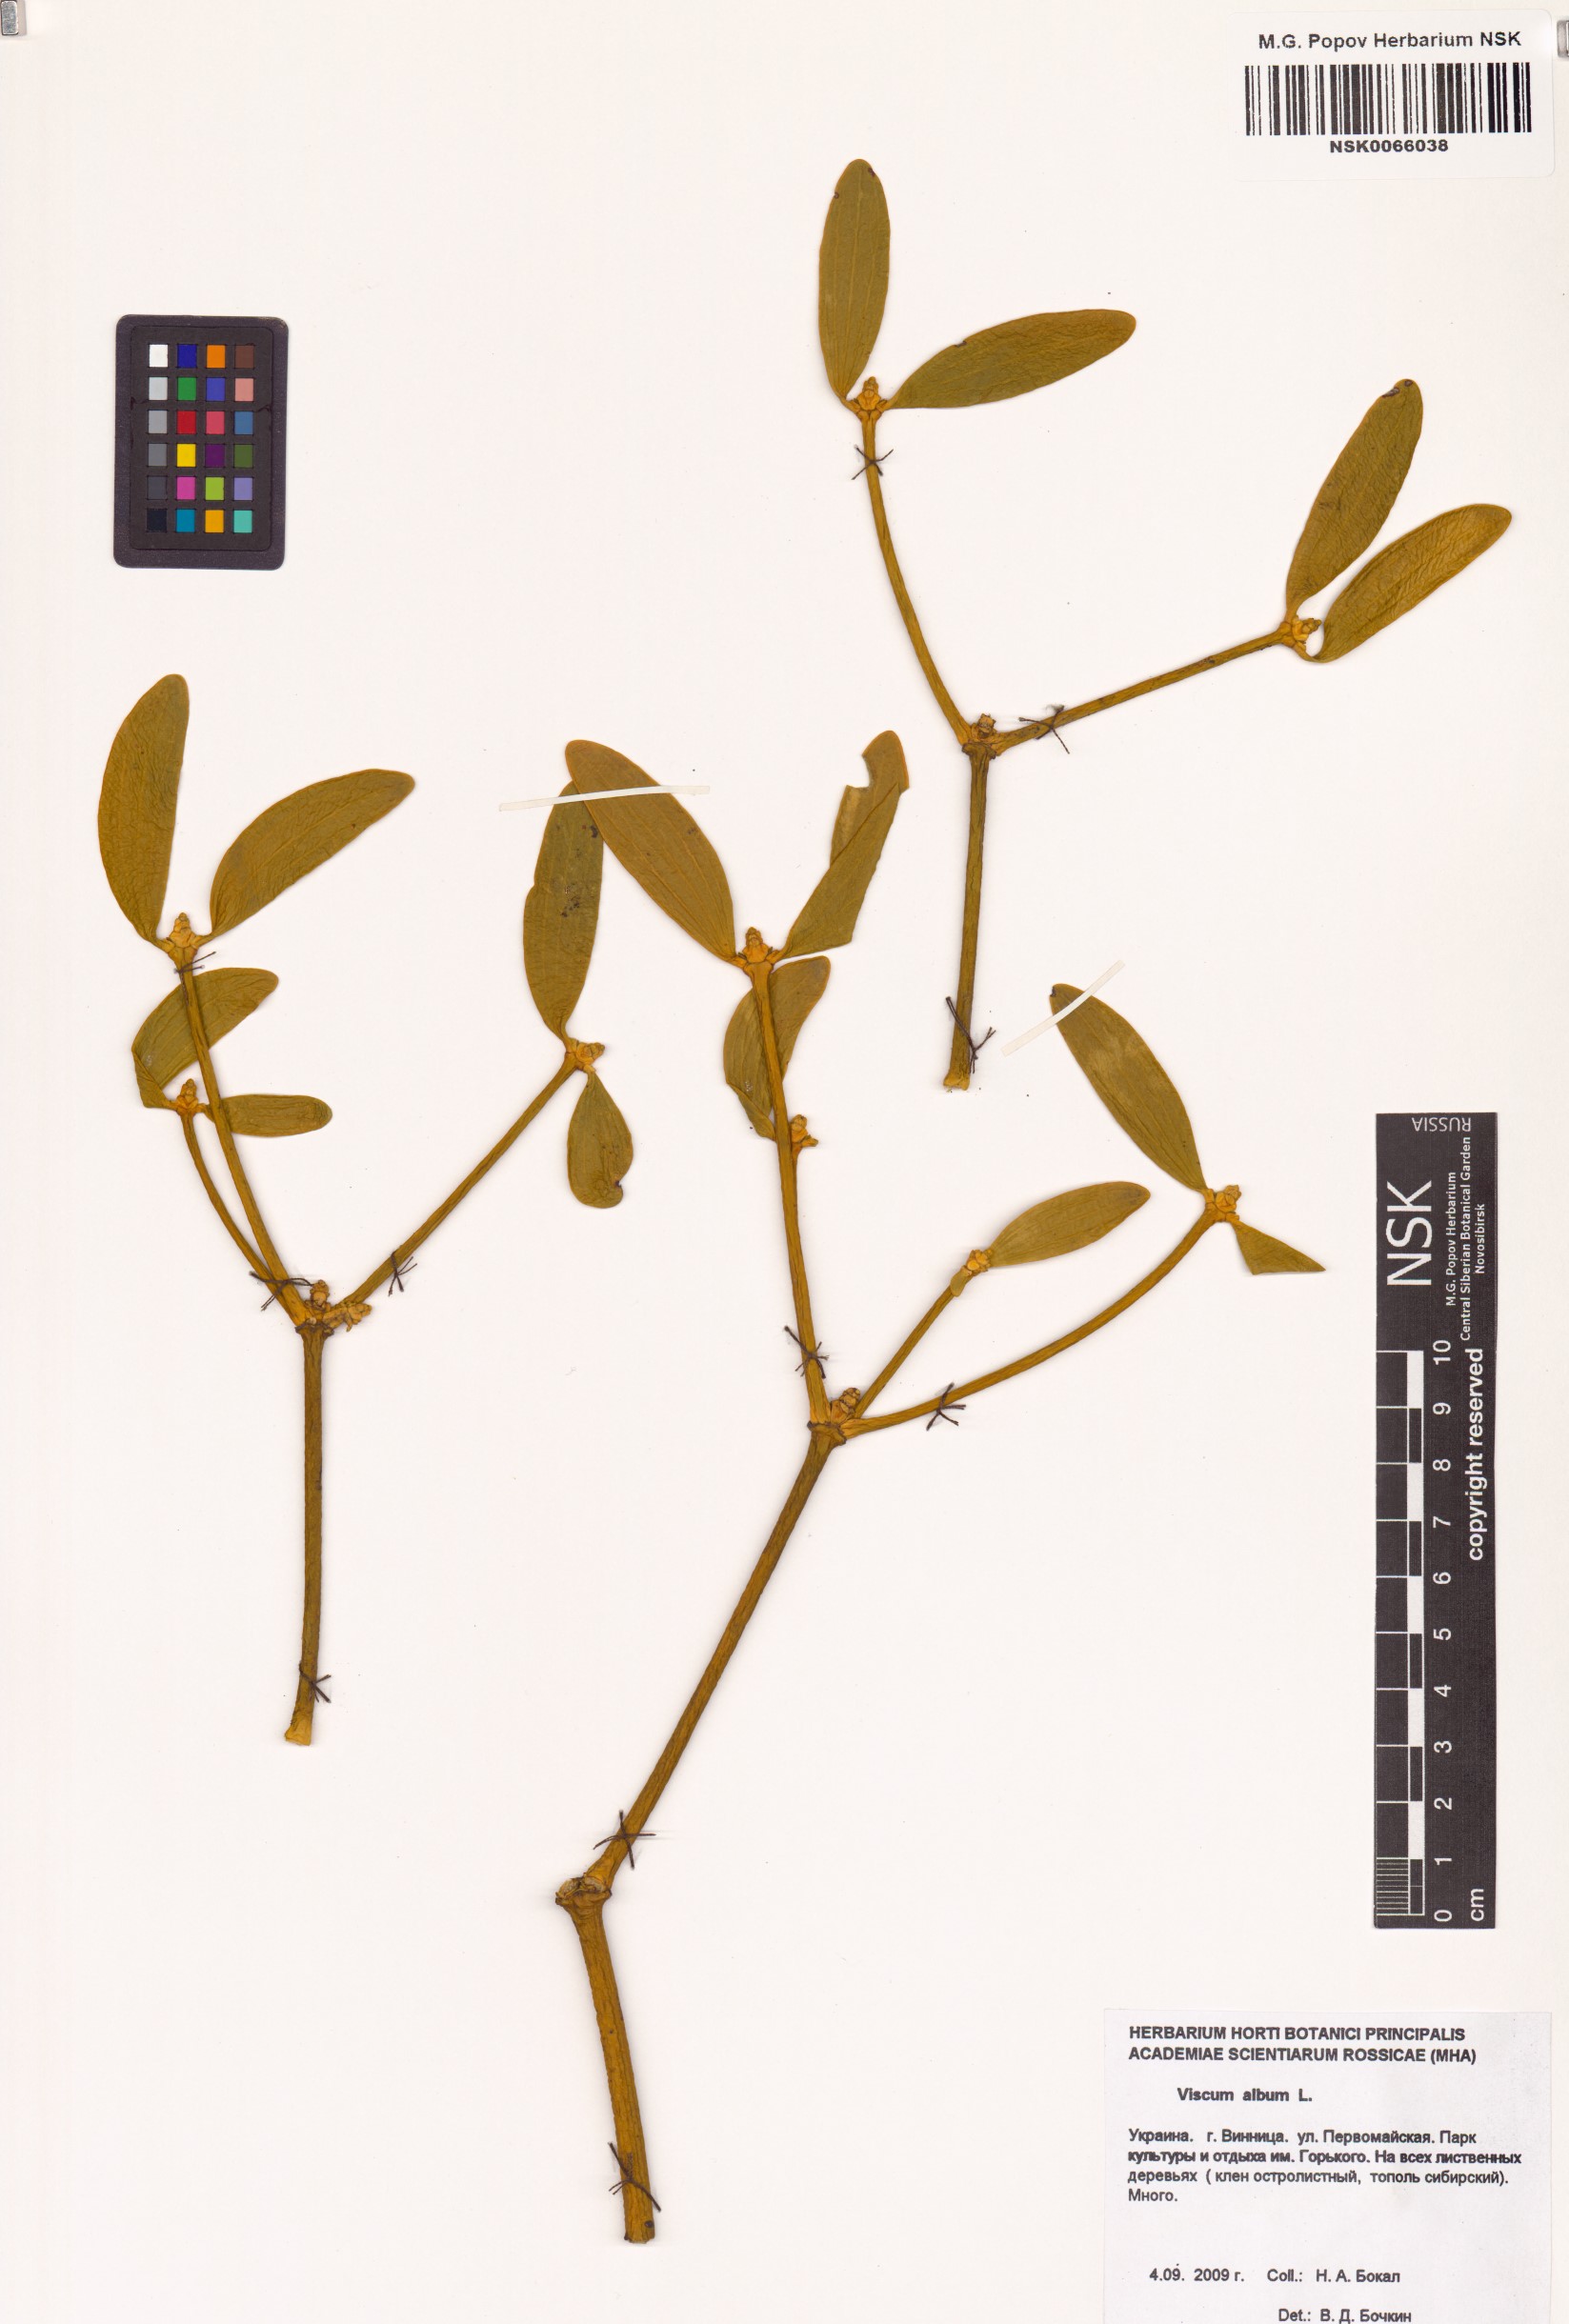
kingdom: Plantae
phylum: Tracheophyta
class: Magnoliopsida
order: Santalales
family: Viscaceae
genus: Viscum
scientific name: Viscum album
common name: Mistletoe
